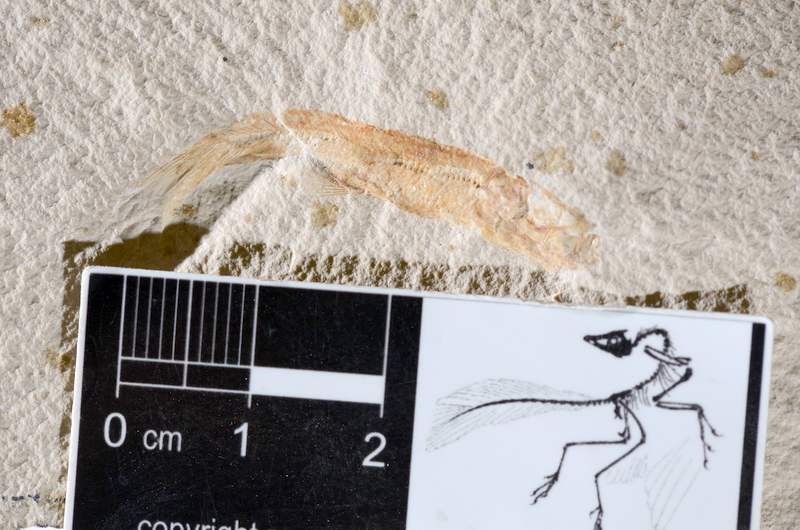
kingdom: Animalia
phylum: Chordata
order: Salmoniformes
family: Orthogonikleithridae
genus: Leptolepides
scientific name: Leptolepides sprattiformis
